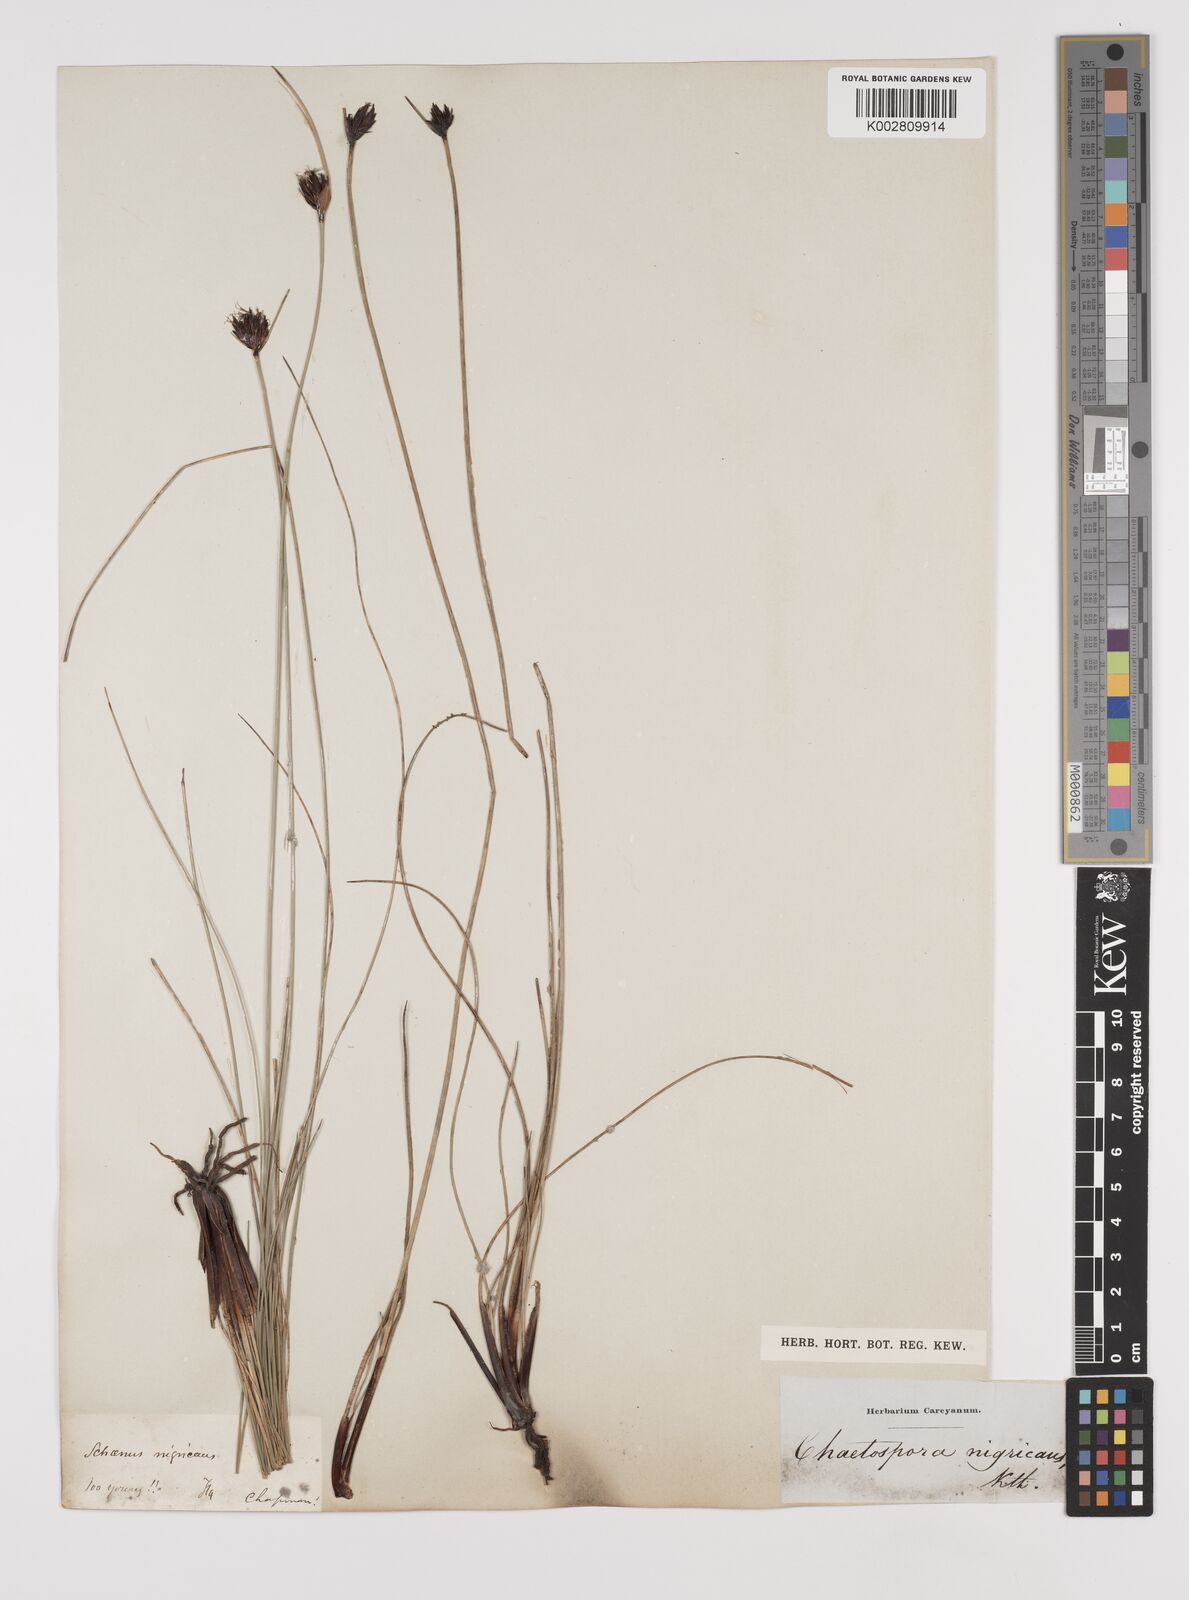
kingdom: Plantae
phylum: Tracheophyta
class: Liliopsida
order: Poales
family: Cyperaceae
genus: Schoenus
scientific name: Schoenus nigricans
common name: Black bog-rush
